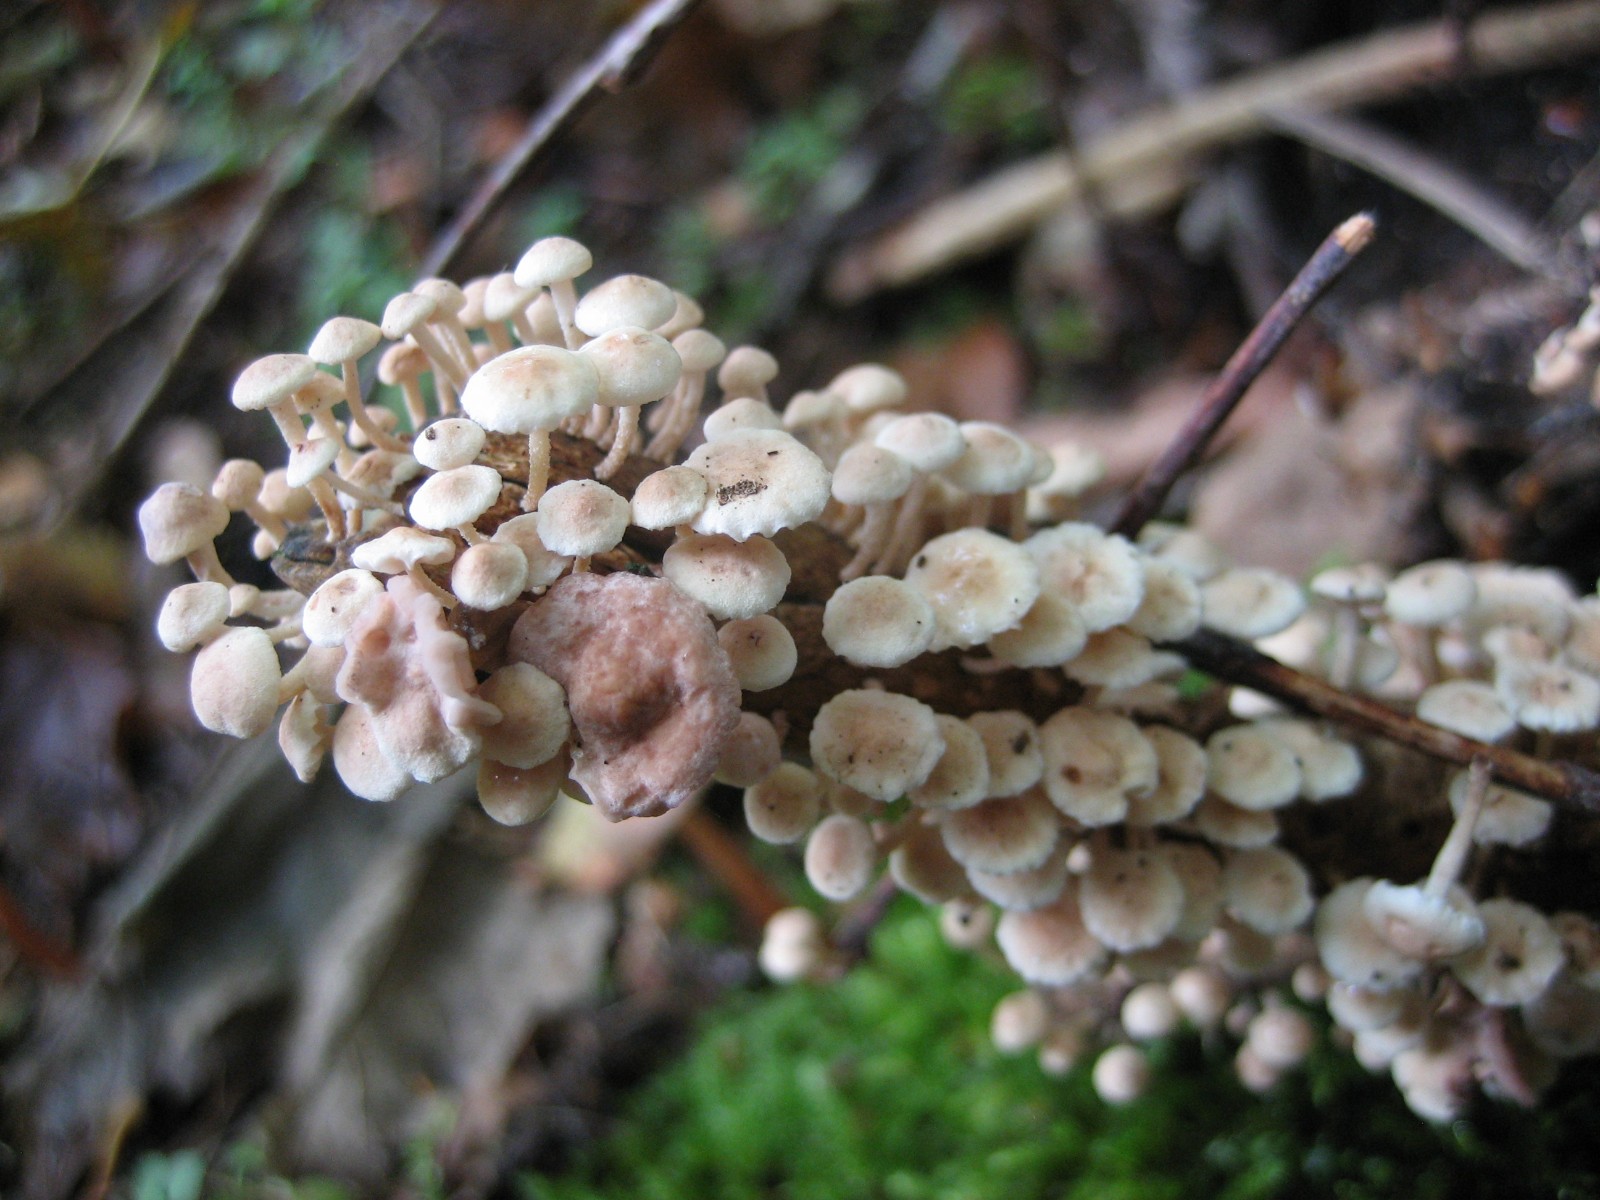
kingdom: Fungi
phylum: Basidiomycota
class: Agaricomycetes
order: Agaricales
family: Omphalotaceae
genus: Collybiopsis
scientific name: Collybiopsis ramealis
